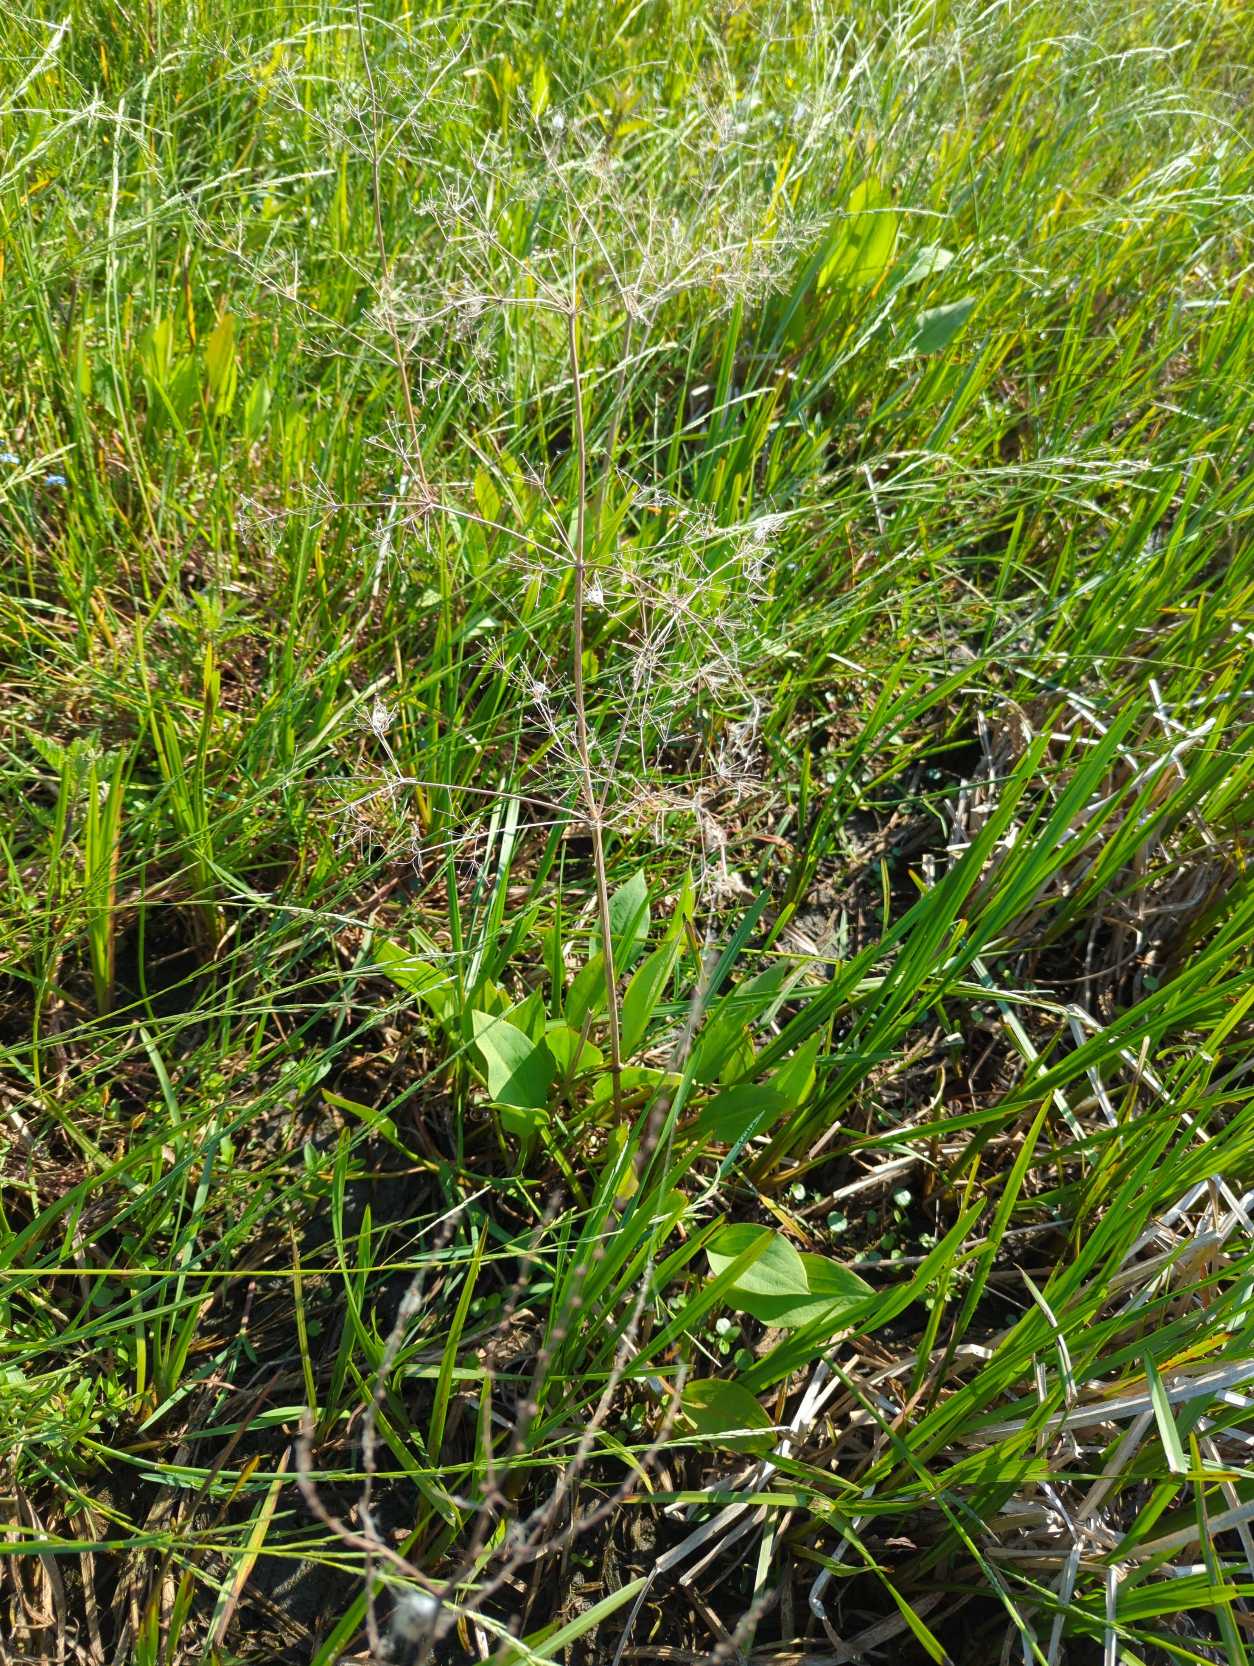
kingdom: Plantae
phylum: Tracheophyta
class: Liliopsida
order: Alismatales
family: Alismataceae
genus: Alisma
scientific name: Alisma plantago-aquatica
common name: Vejbred-skeblad
